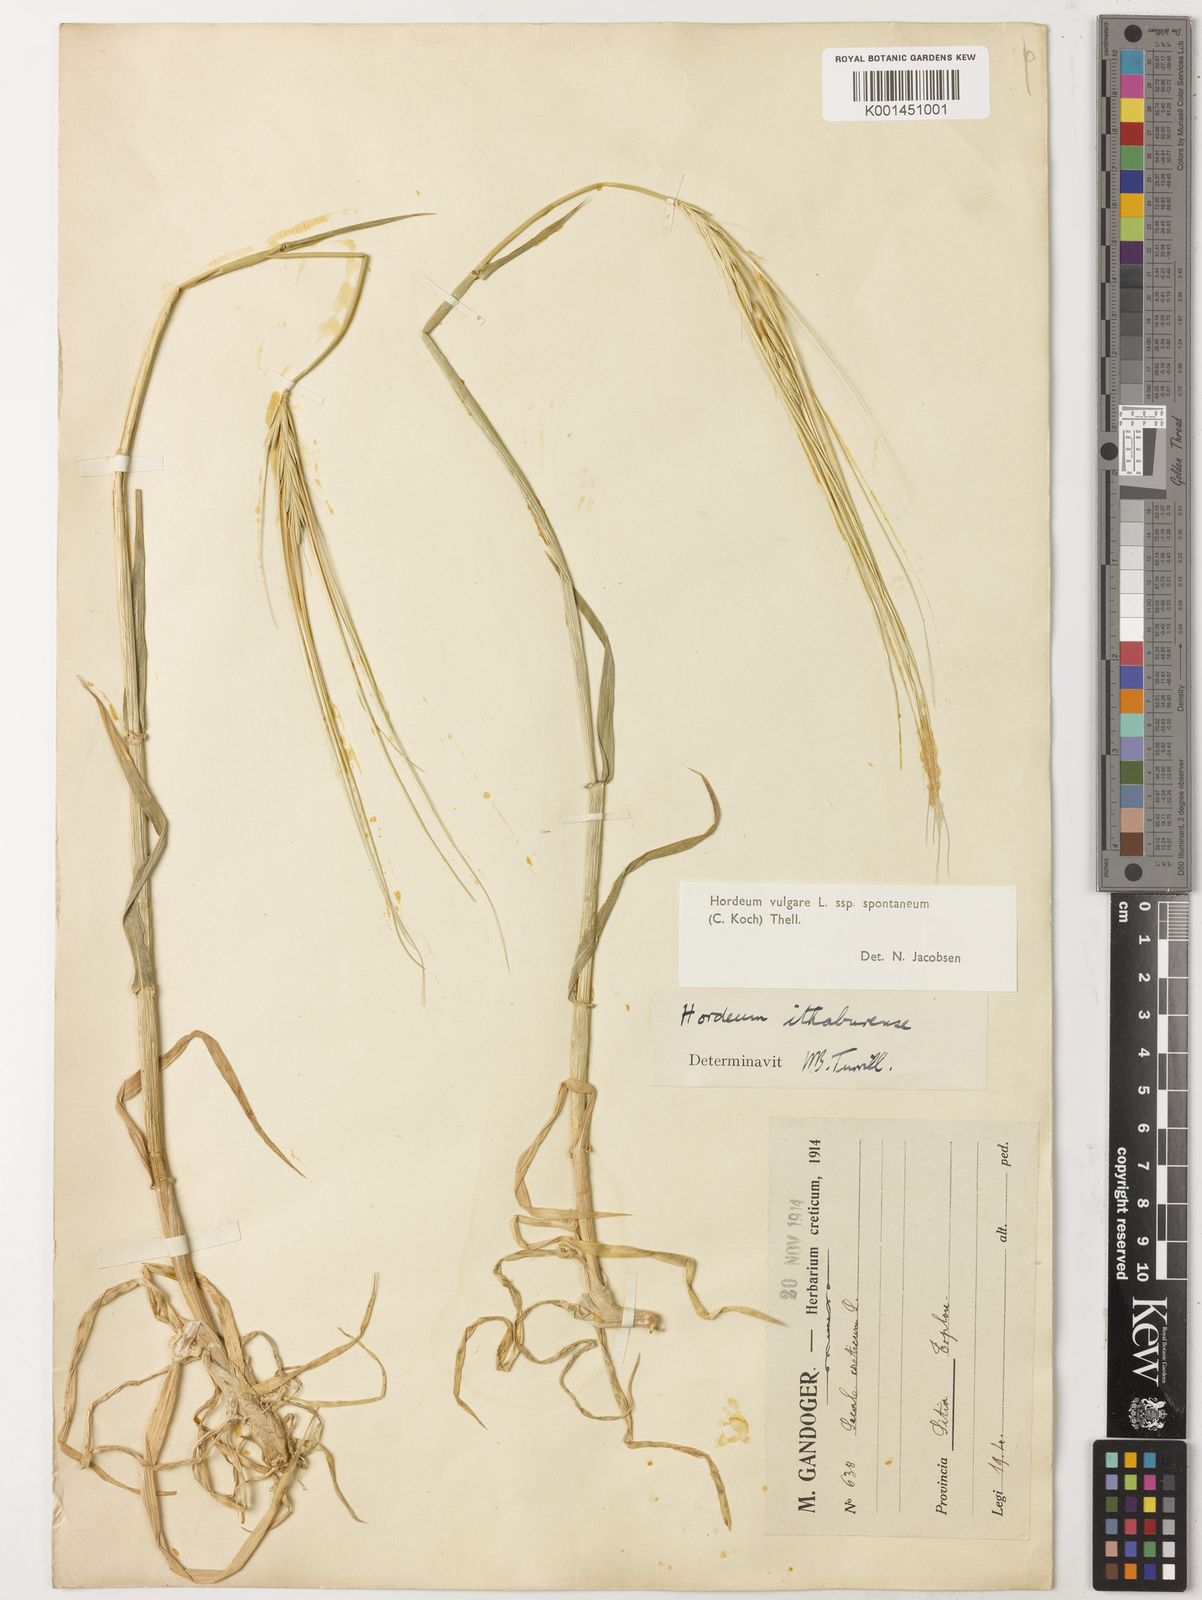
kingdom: Plantae
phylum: Tracheophyta
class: Liliopsida
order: Poales
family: Poaceae
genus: Hordeum
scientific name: Hordeum spontaneum
